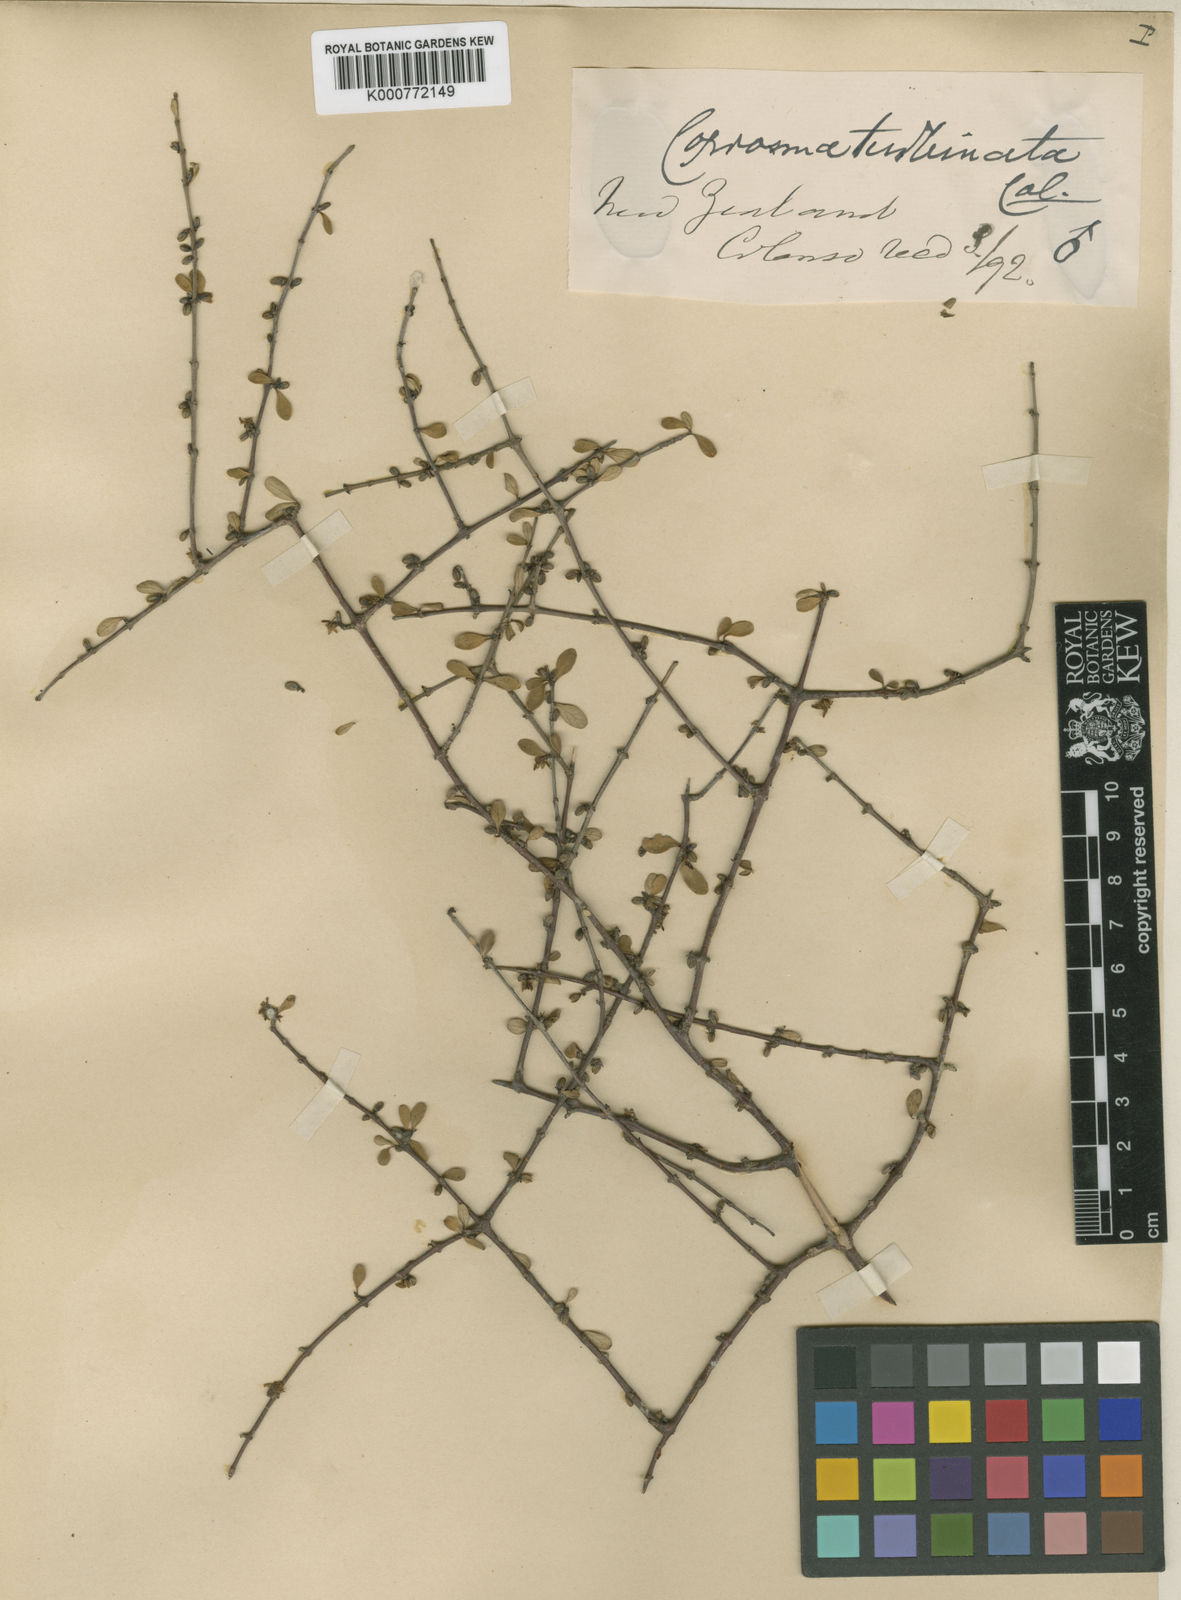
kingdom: Plantae
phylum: Tracheophyta
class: Magnoliopsida
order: Gentianales
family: Rubiaceae
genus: Coprosma
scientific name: Coprosma rigida
